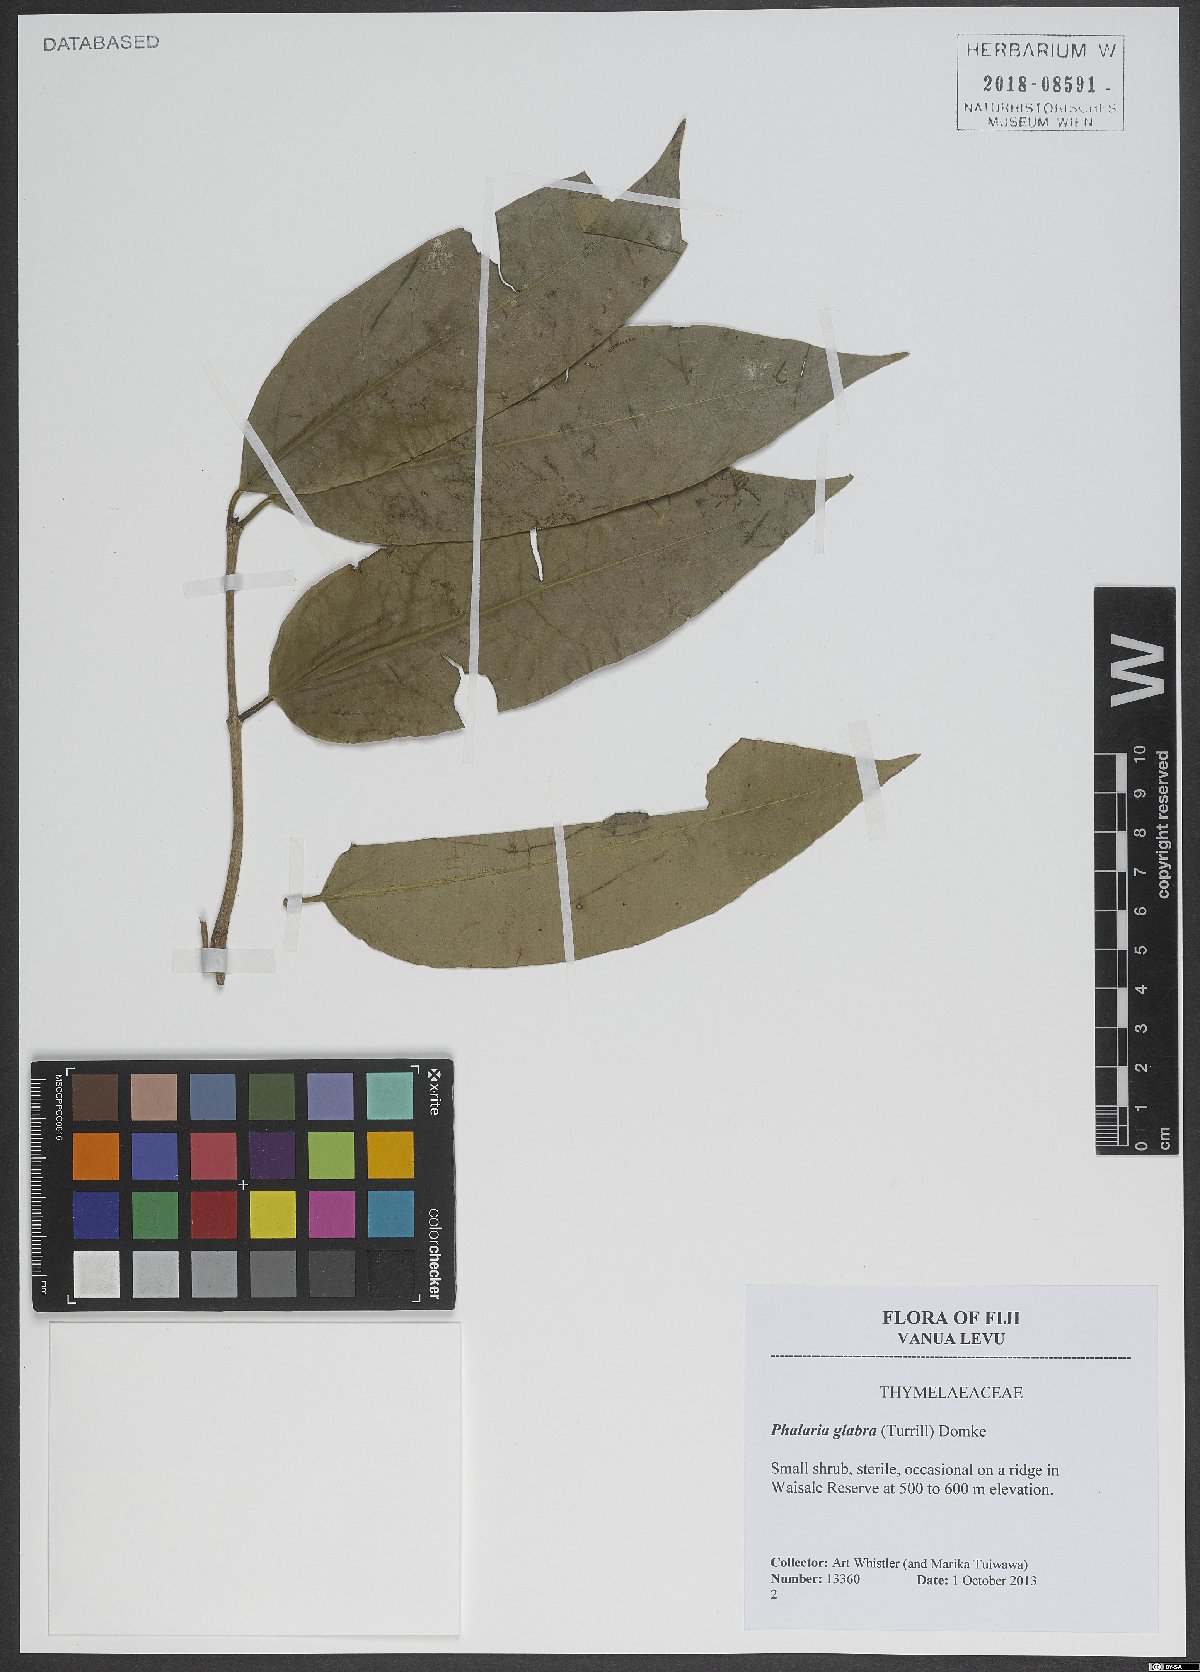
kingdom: Plantae
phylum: Tracheophyta
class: Magnoliopsida
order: Malvales
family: Thymelaeaceae
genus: Phaleria
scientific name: Phaleria glabra
